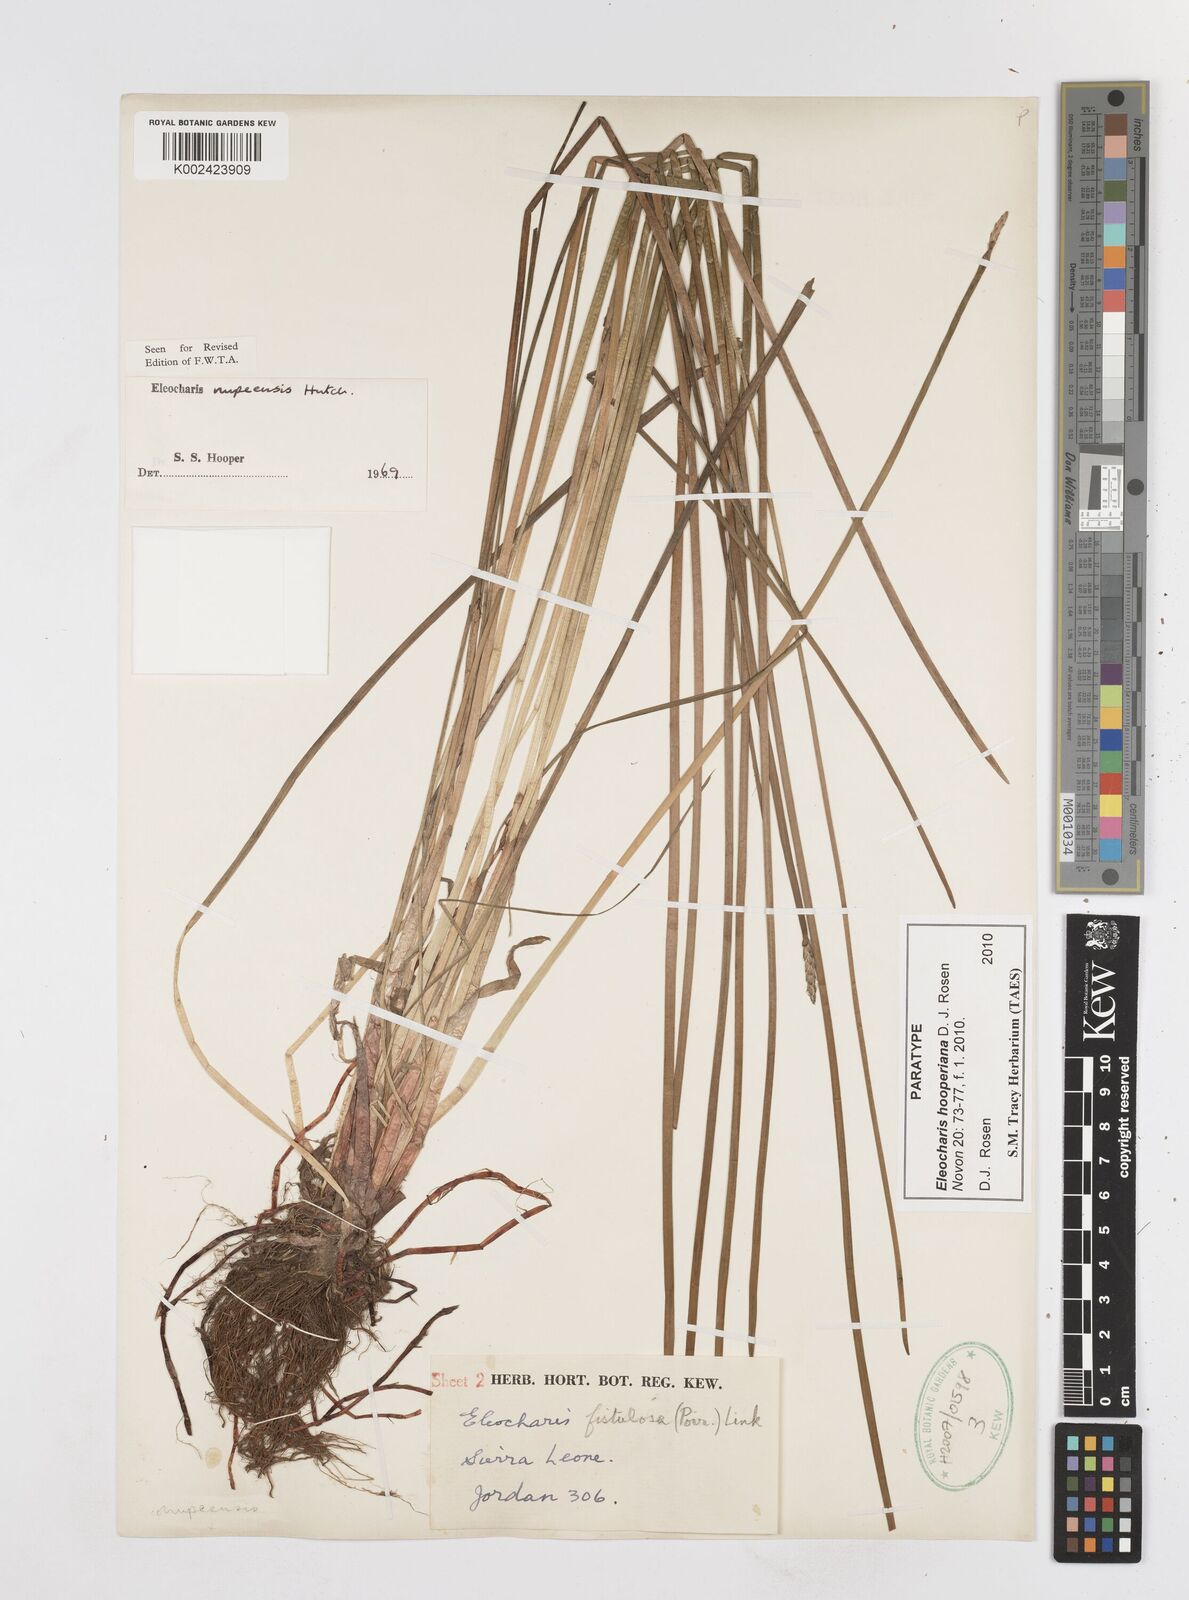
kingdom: Plantae
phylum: Tracheophyta
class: Liliopsida
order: Poales
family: Cyperaceae
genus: Eleocharis
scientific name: Eleocharis hooperiana
